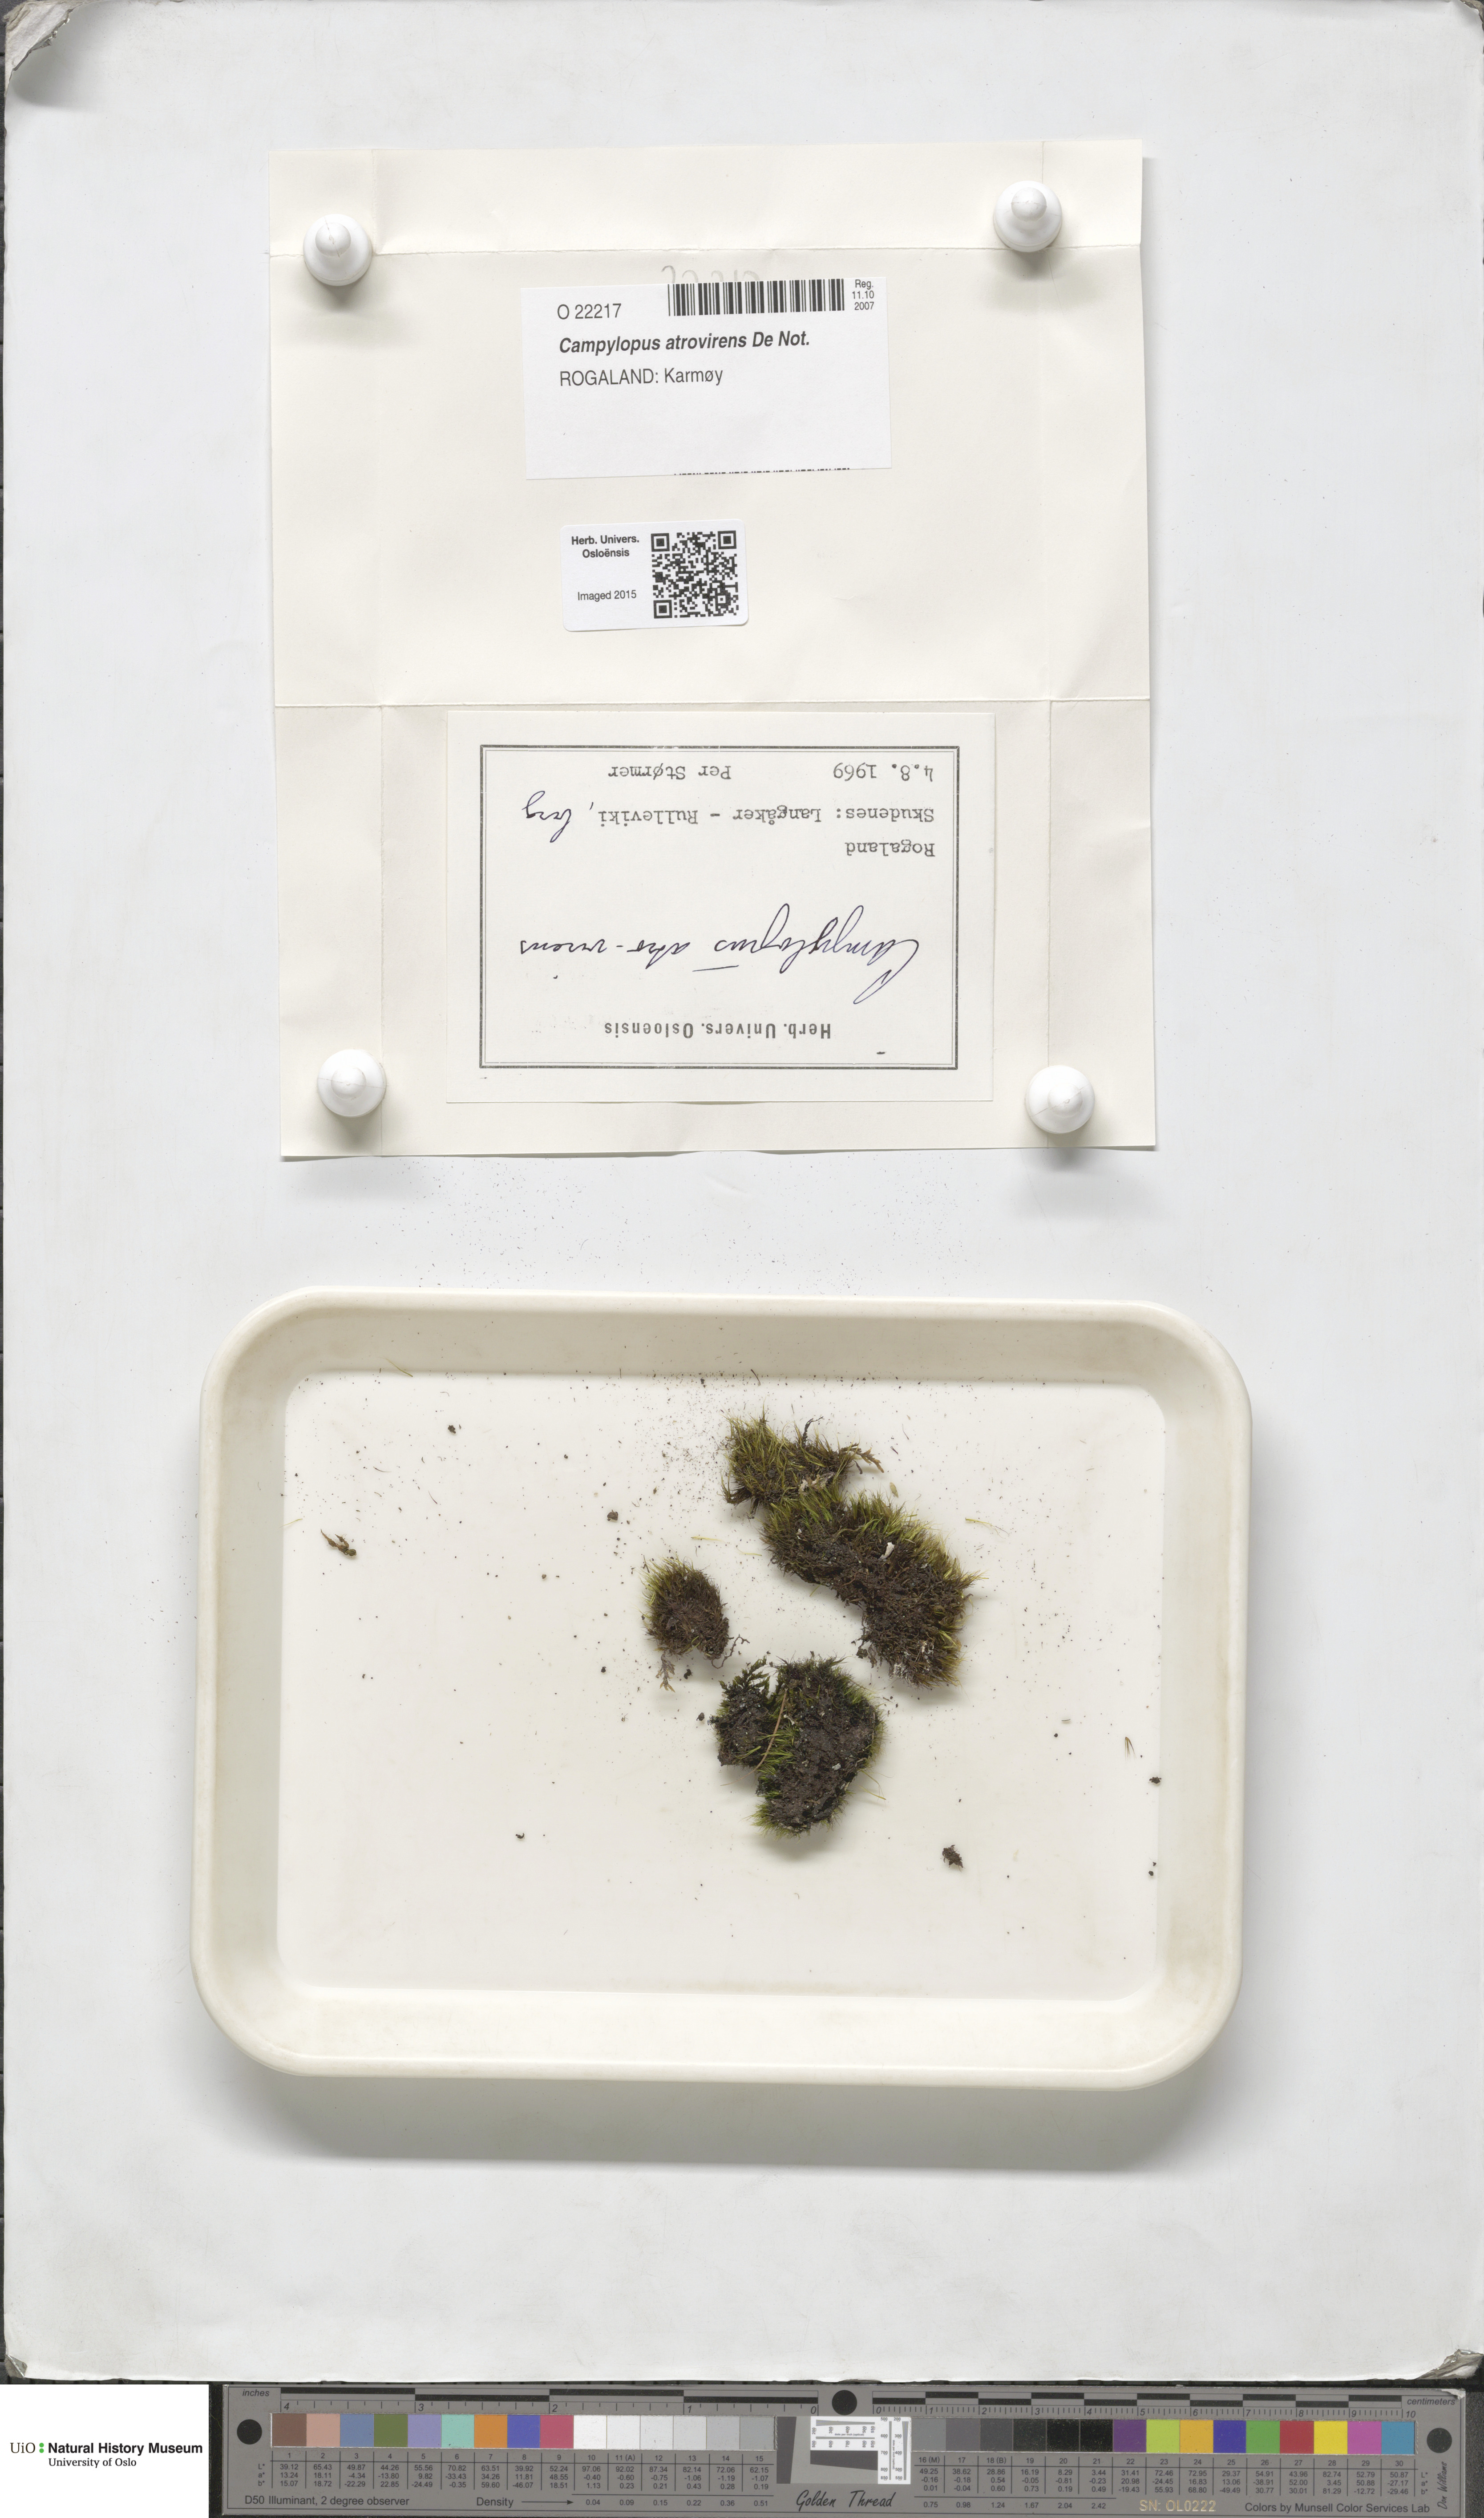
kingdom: Plantae
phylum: Bryophyta
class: Bryopsida
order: Dicranales
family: Leucobryaceae
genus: Campylopus
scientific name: Campylopus atrovirens
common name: Bristly swan-neck moss
